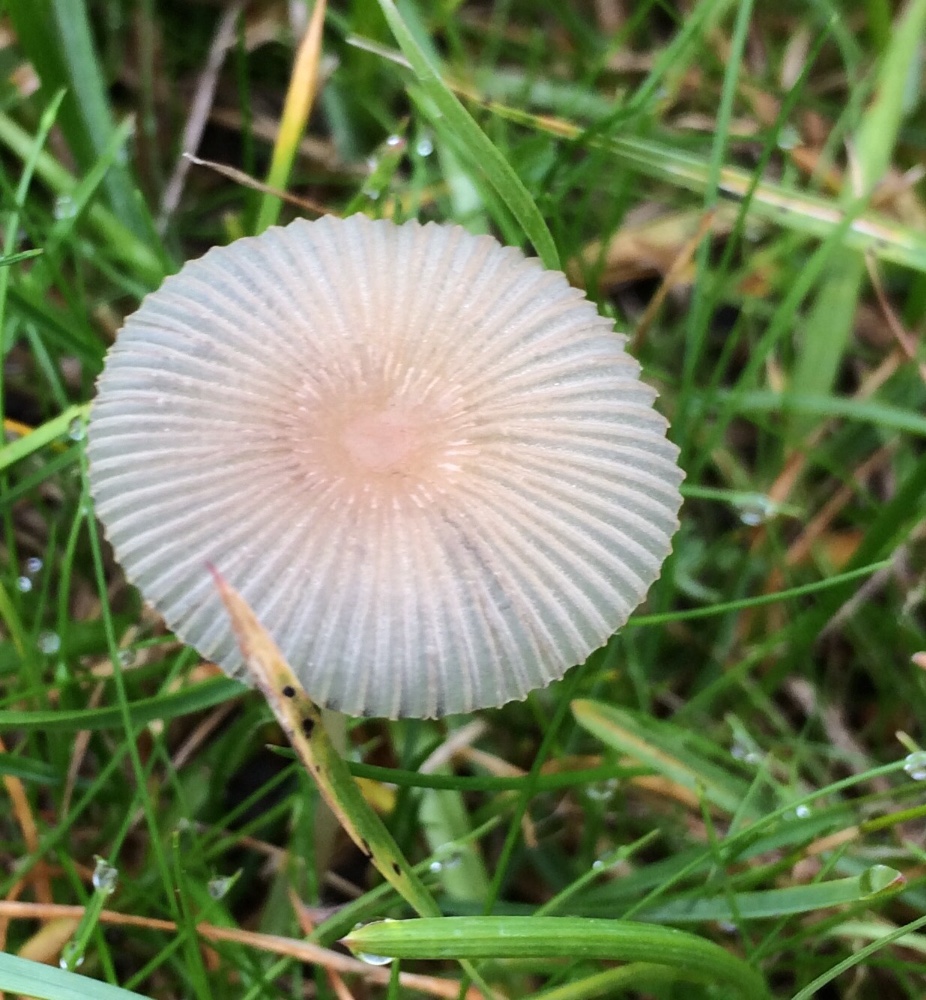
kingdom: Fungi
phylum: Basidiomycota
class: Agaricomycetes
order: Agaricales
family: Psathyrellaceae
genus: Parasola
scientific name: Parasola
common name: hjulhat
